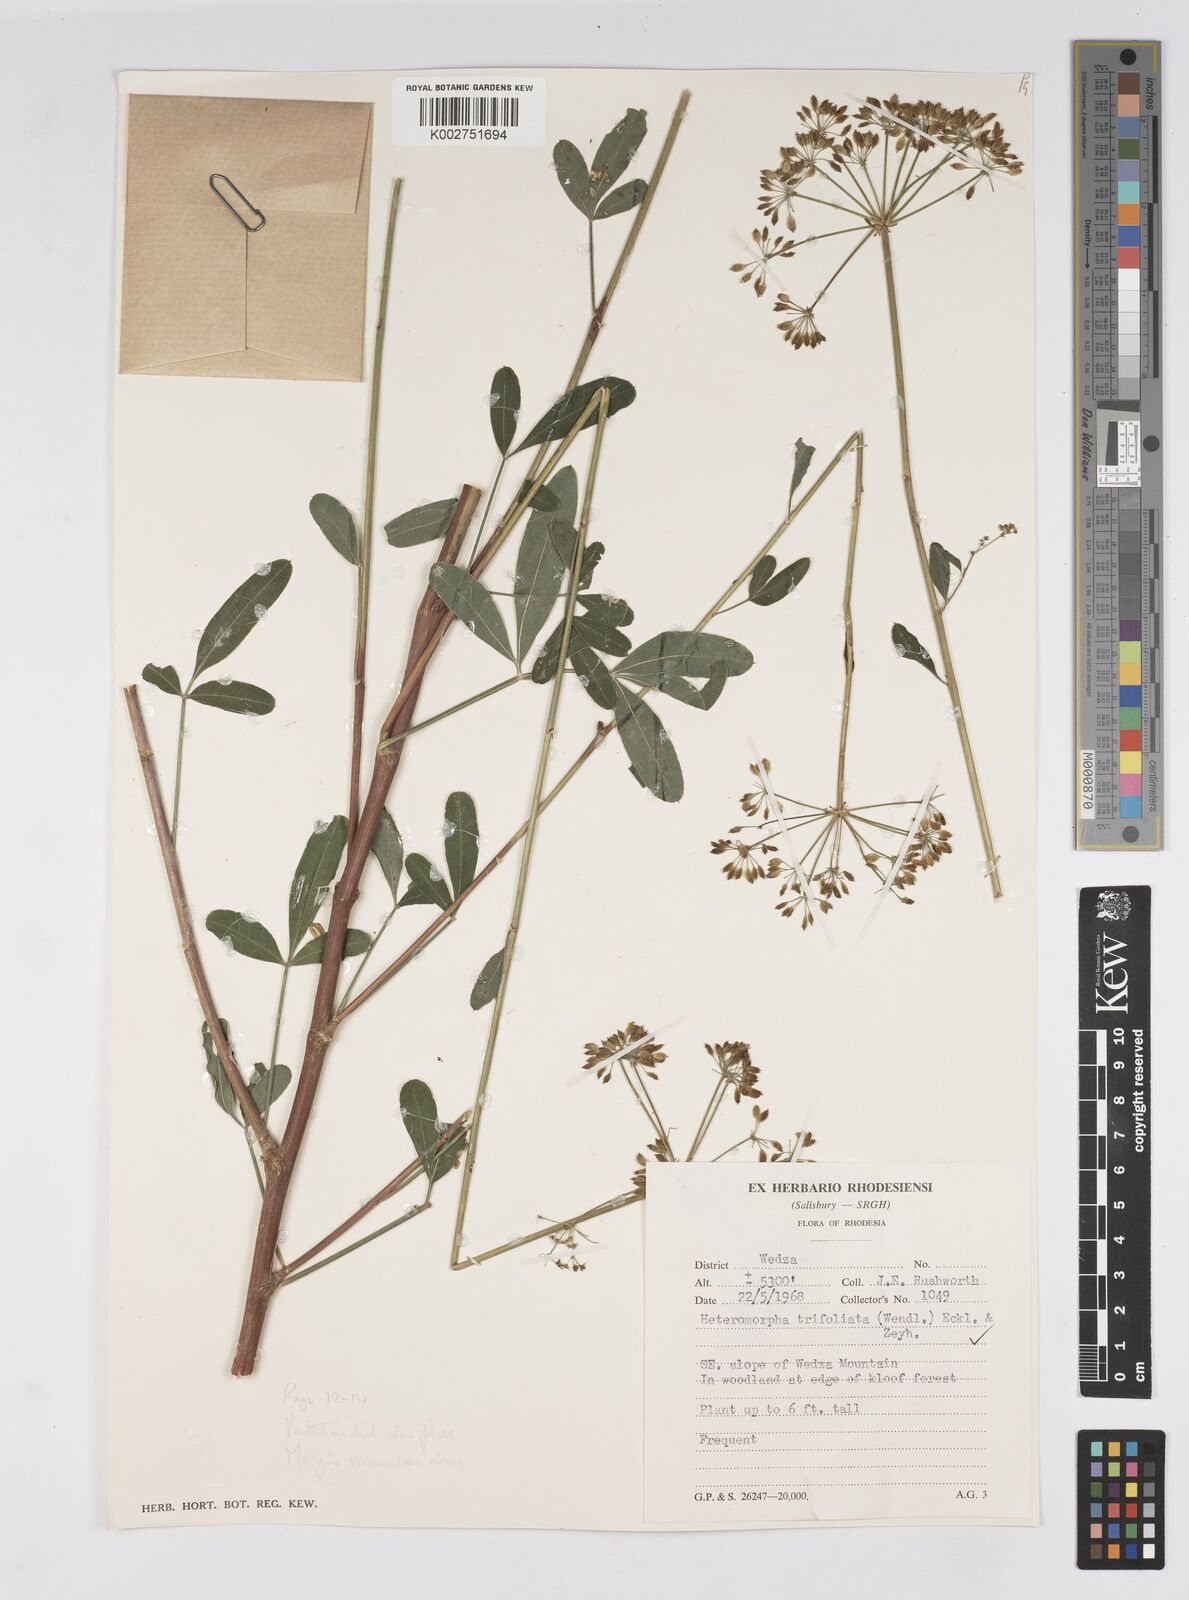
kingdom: Plantae
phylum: Tracheophyta
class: Magnoliopsida
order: Apiales
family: Apiaceae
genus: Heteromorpha
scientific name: Heteromorpha stenophylla
